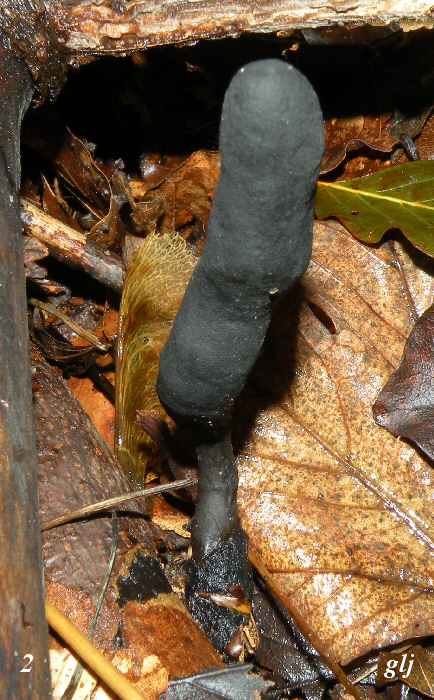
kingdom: Fungi
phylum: Ascomycota
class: Sordariomycetes
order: Xylariales
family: Xylariaceae
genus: Xylaria
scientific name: Xylaria longipes
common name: slank stødsvamp
